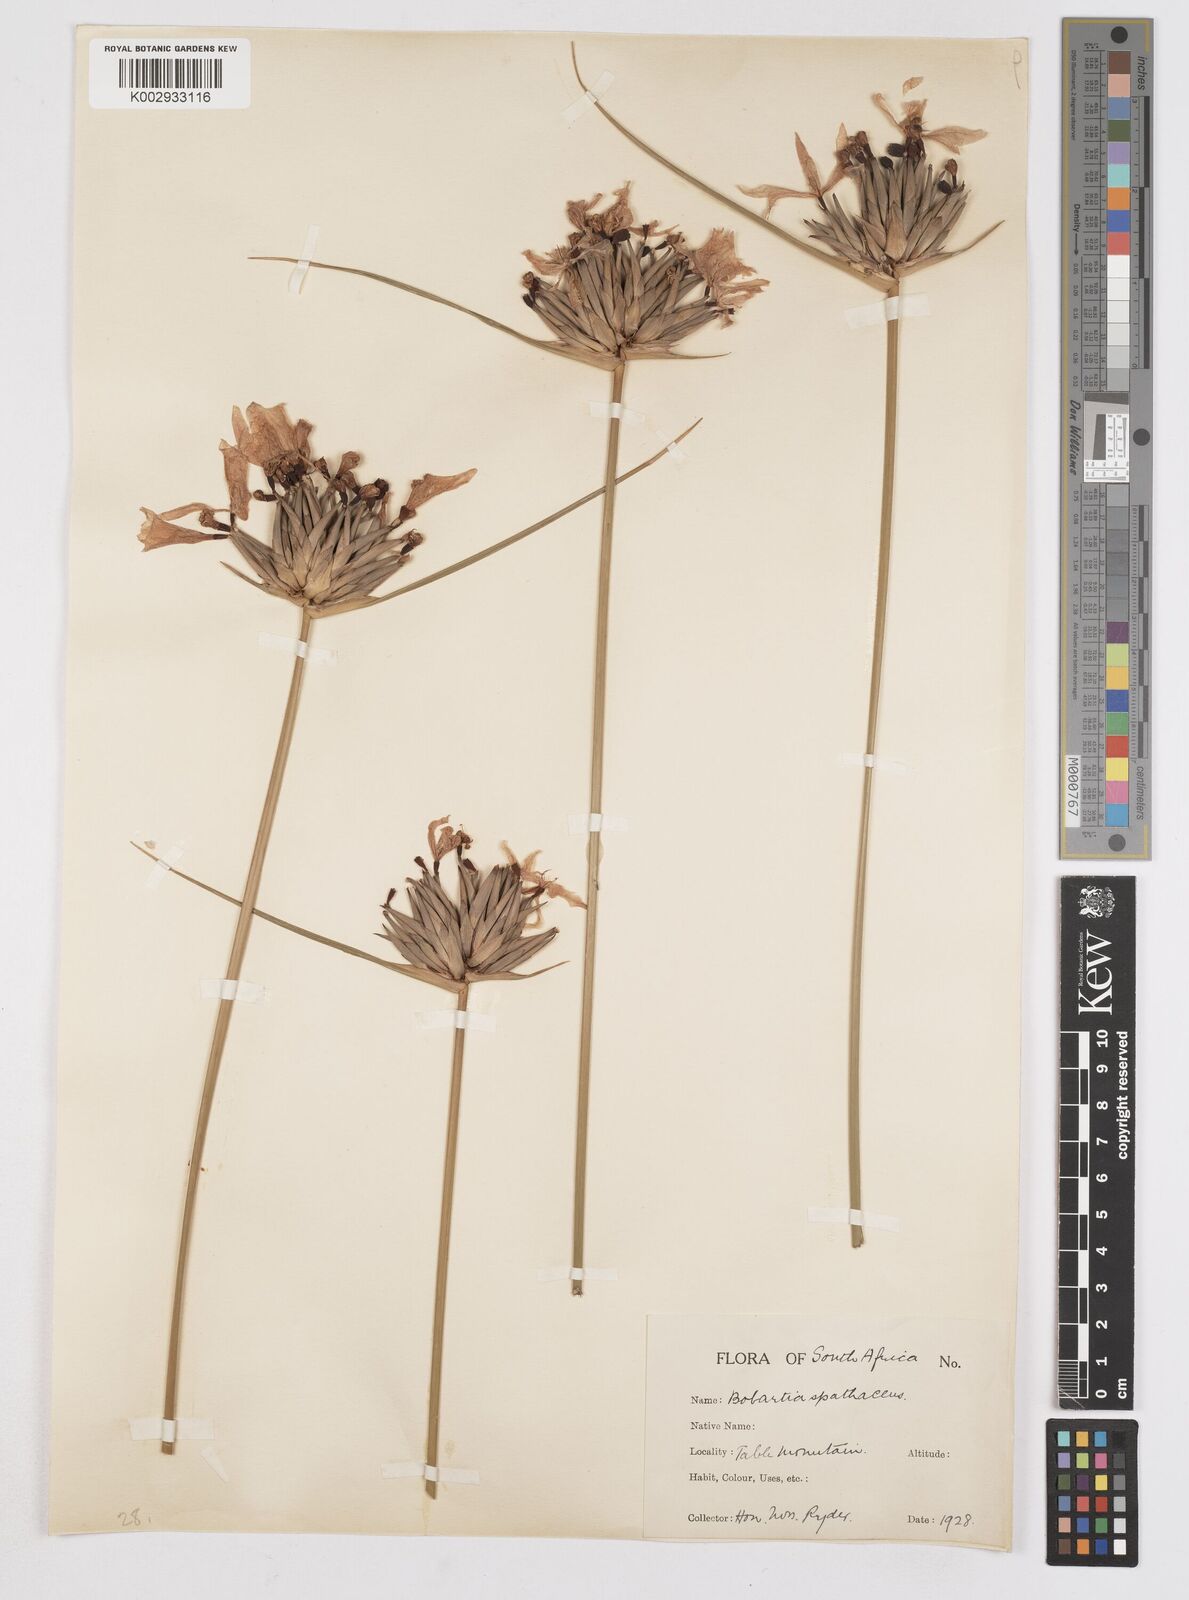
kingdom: Plantae
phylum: Tracheophyta
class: Liliopsida
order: Asparagales
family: Iridaceae
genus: Bobartia
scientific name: Bobartia indica
